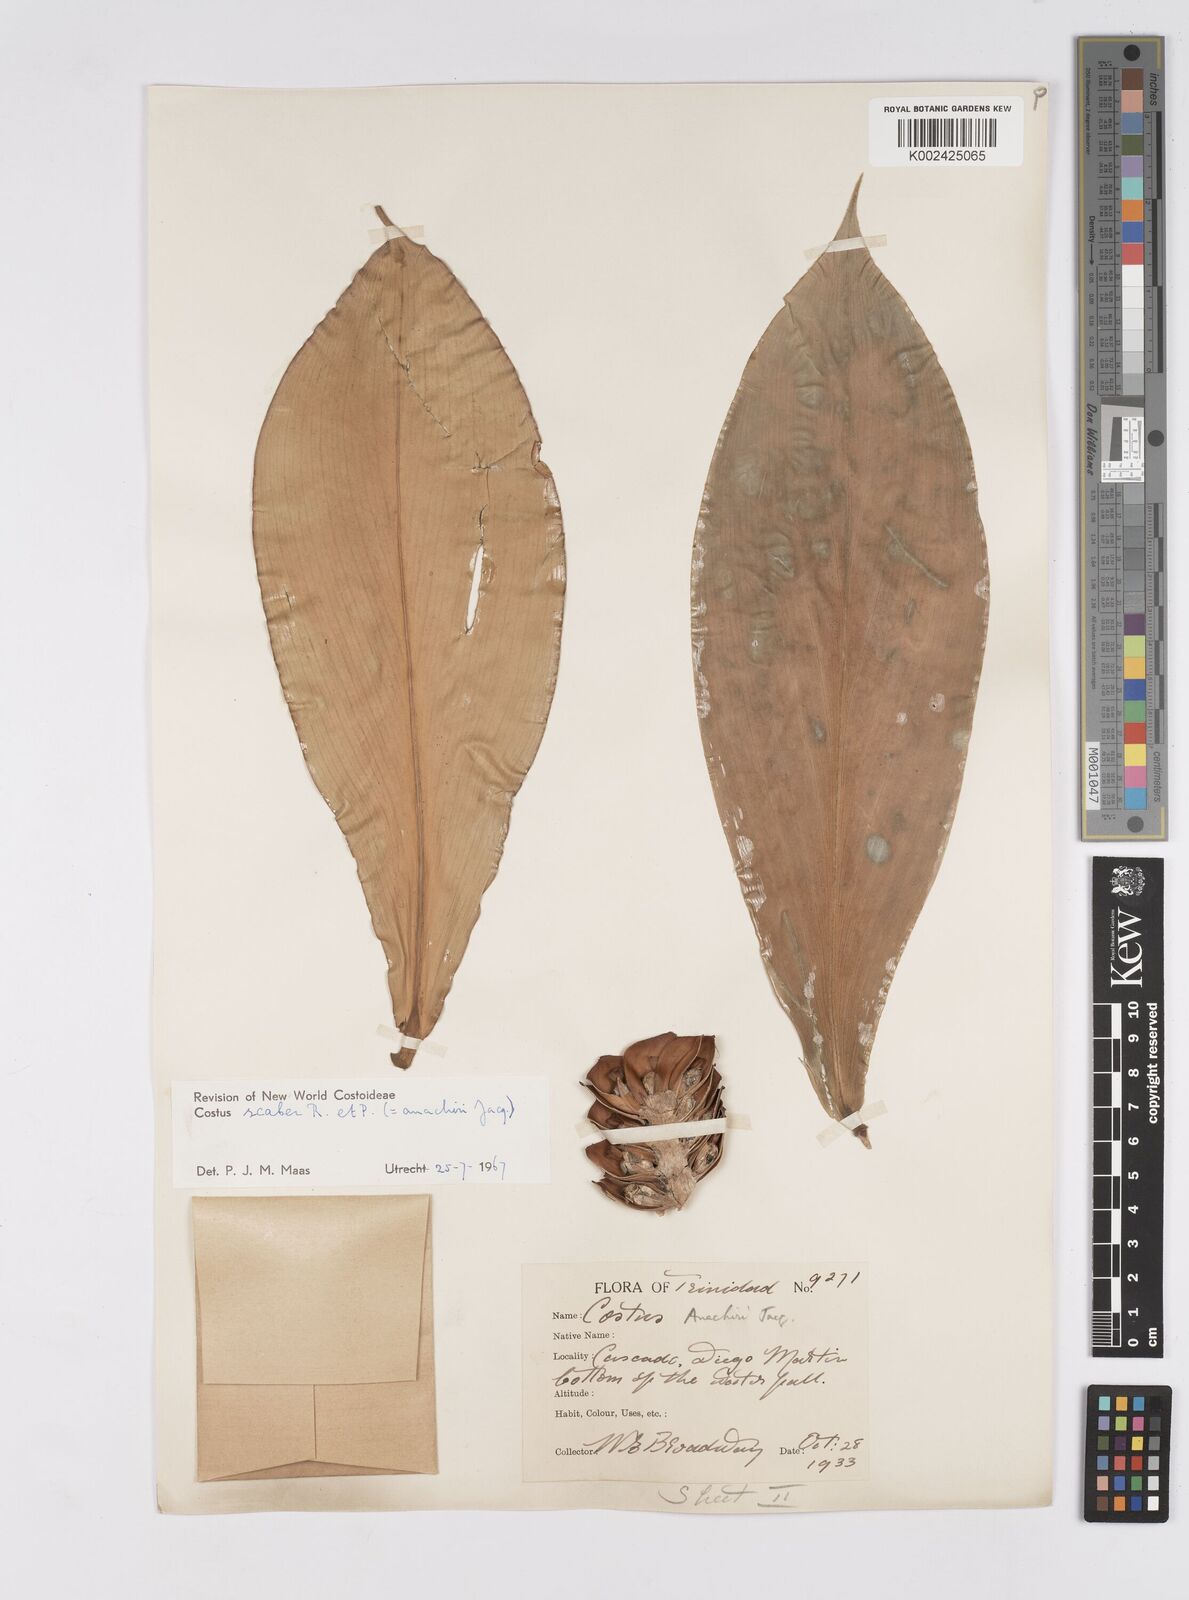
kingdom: Plantae
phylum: Tracheophyta
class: Liliopsida
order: Zingiberales
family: Costaceae
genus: Costus
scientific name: Costus scaber
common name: Spiral head ginger
